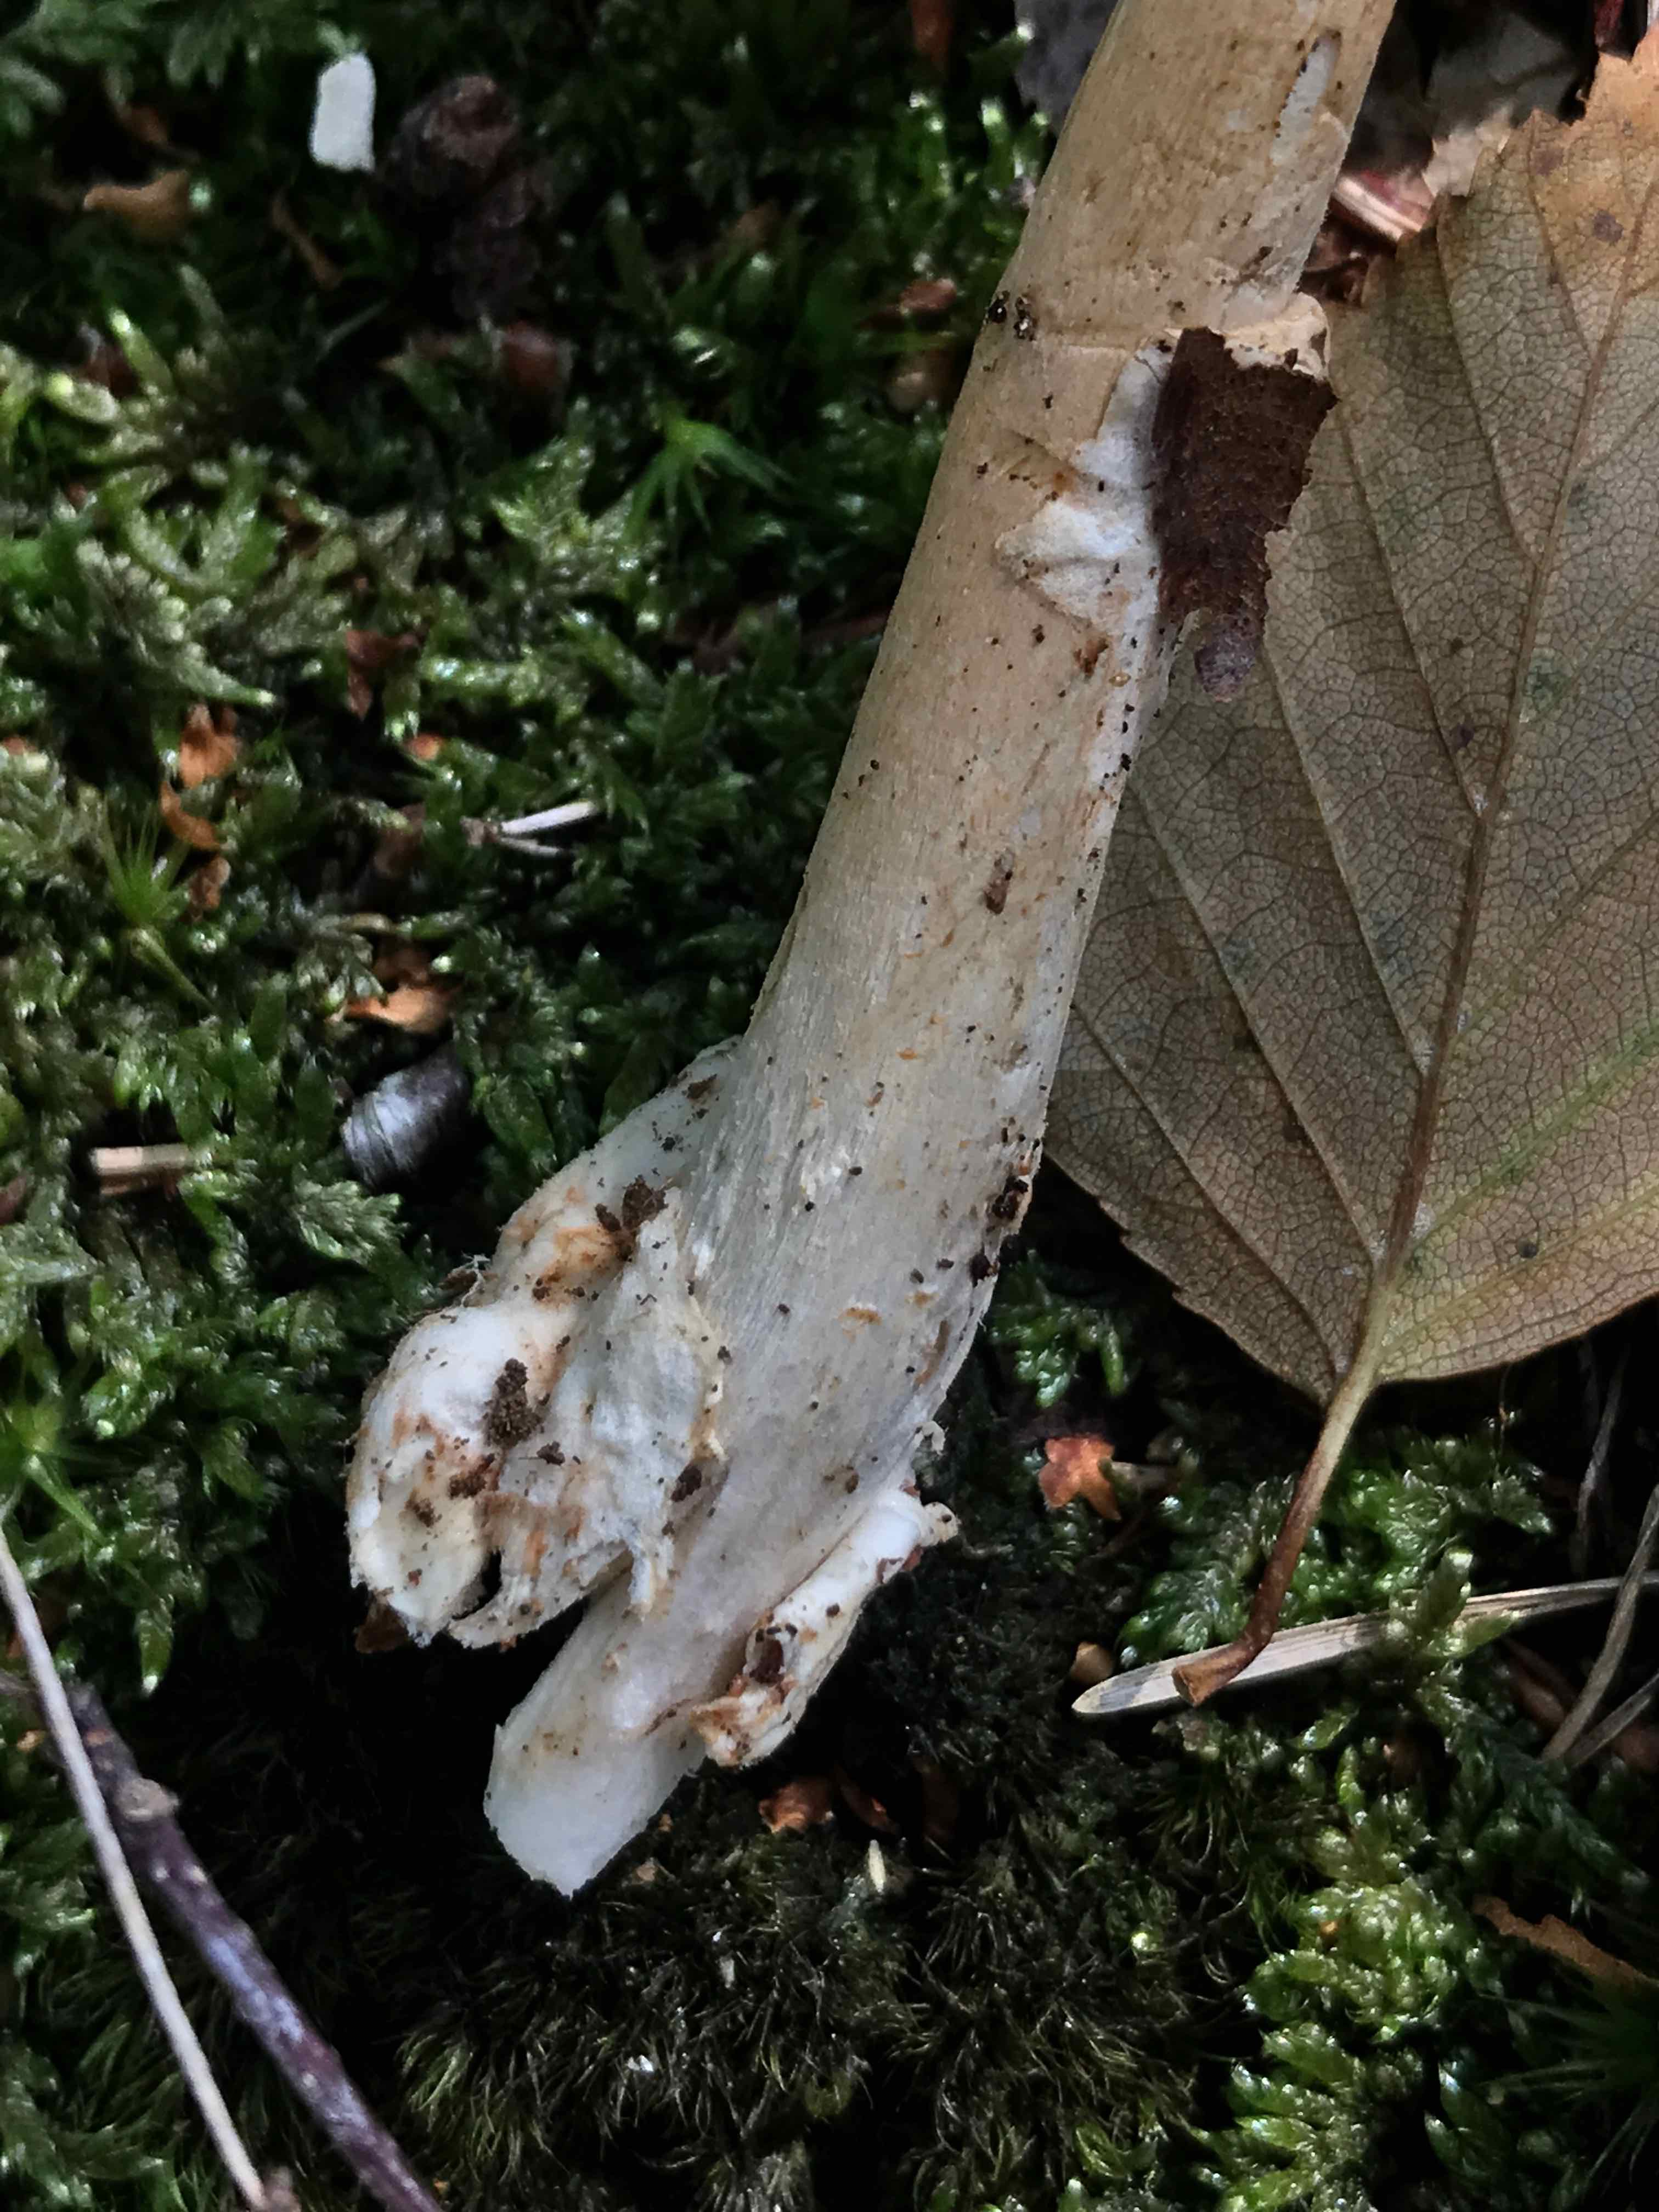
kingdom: Fungi
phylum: Basidiomycota
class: Agaricomycetes
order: Agaricales
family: Amanitaceae
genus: Amanita
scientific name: Amanita fulva
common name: brun kam-fluesvamp
